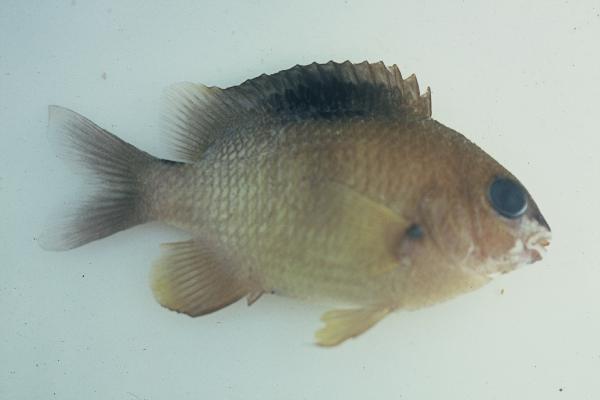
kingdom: Animalia
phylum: Chordata
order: Perciformes
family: Pomacentridae
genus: Pomacentrus
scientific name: Pomacentrus
